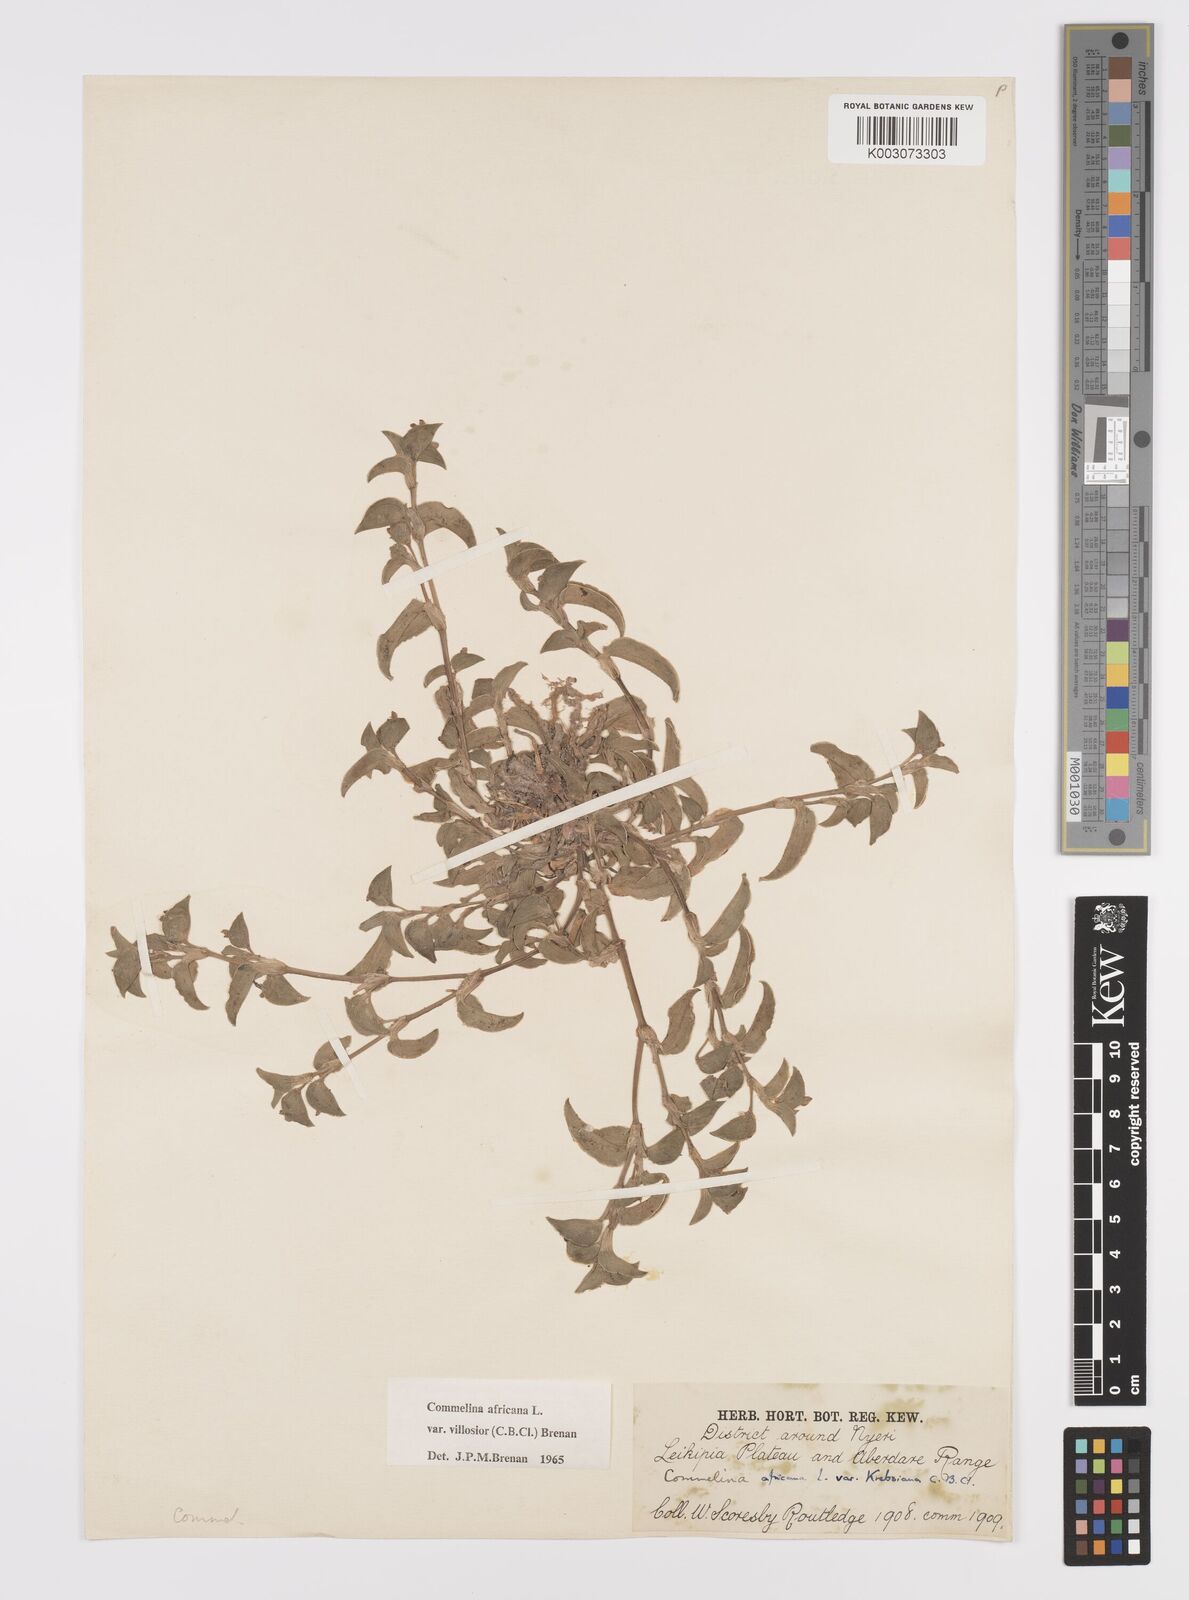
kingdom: Plantae
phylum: Tracheophyta
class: Liliopsida
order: Commelinales
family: Commelinaceae
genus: Commelina
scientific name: Commelina africana
